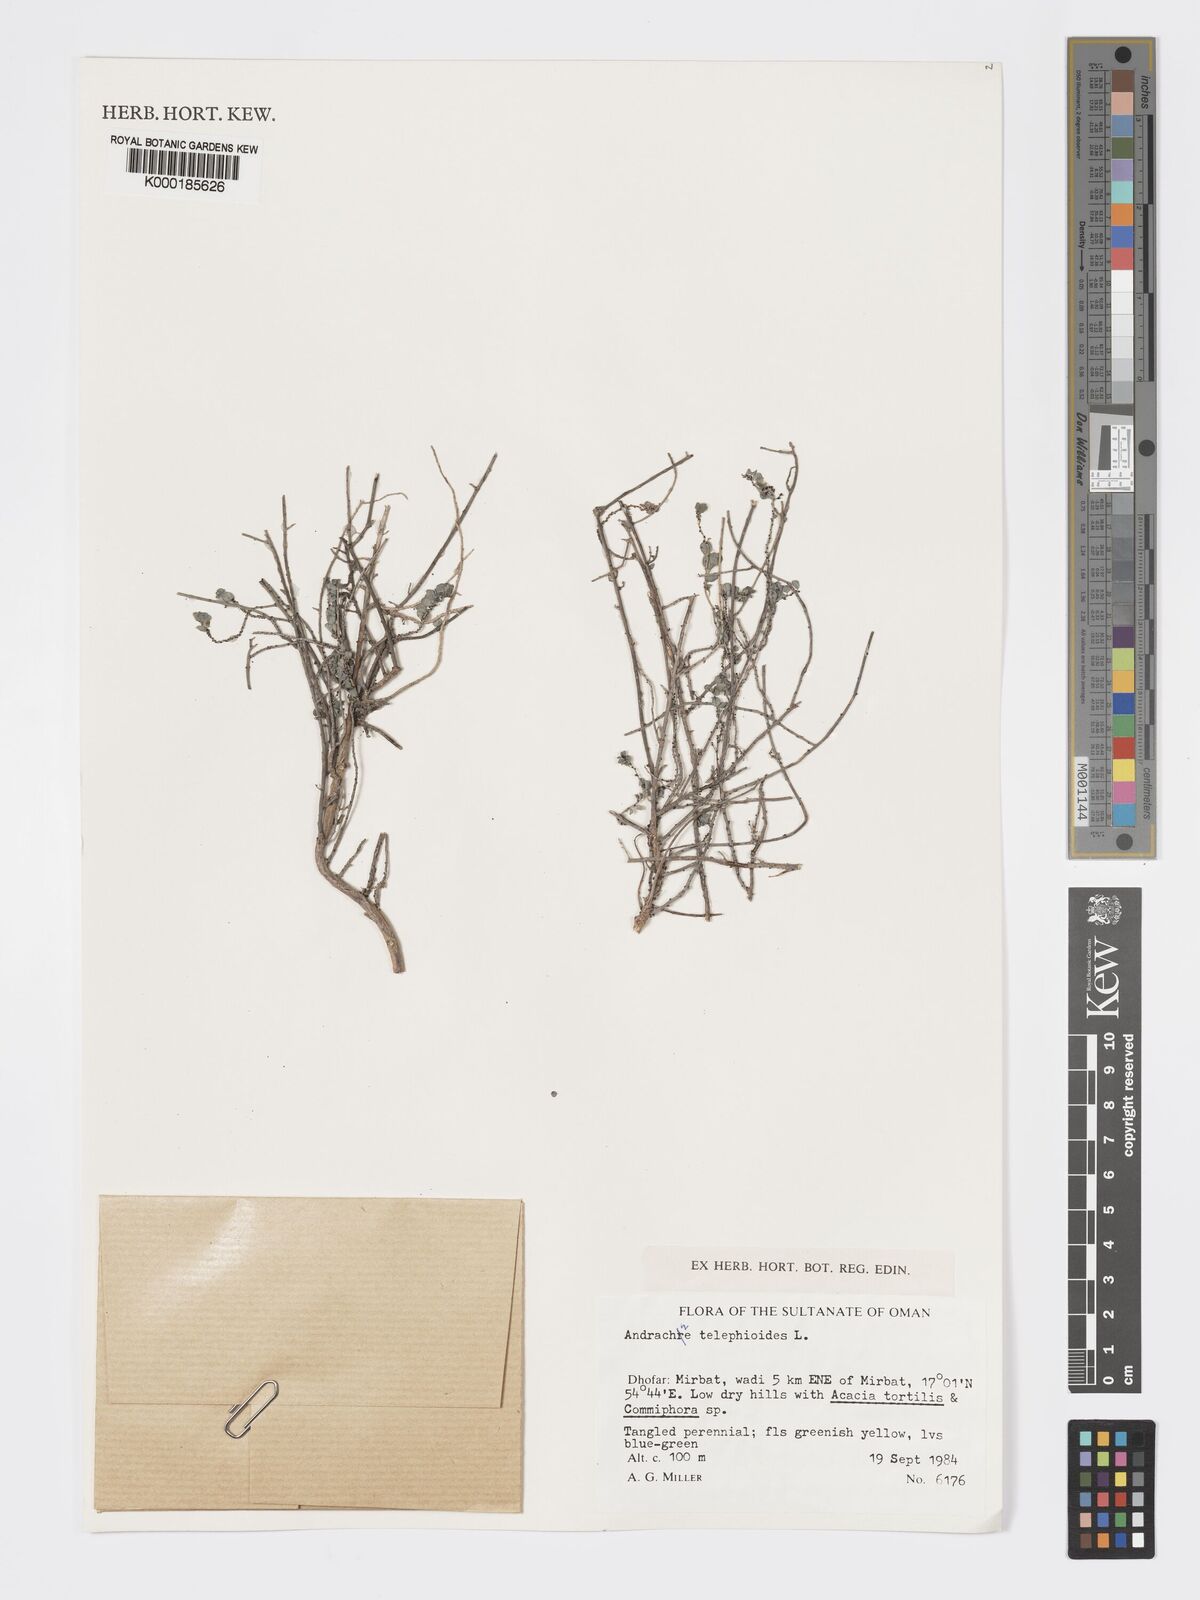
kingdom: Plantae
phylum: Tracheophyta
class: Magnoliopsida
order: Malpighiales
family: Phyllanthaceae
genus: Andrachne
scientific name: Andrachne telephioides
